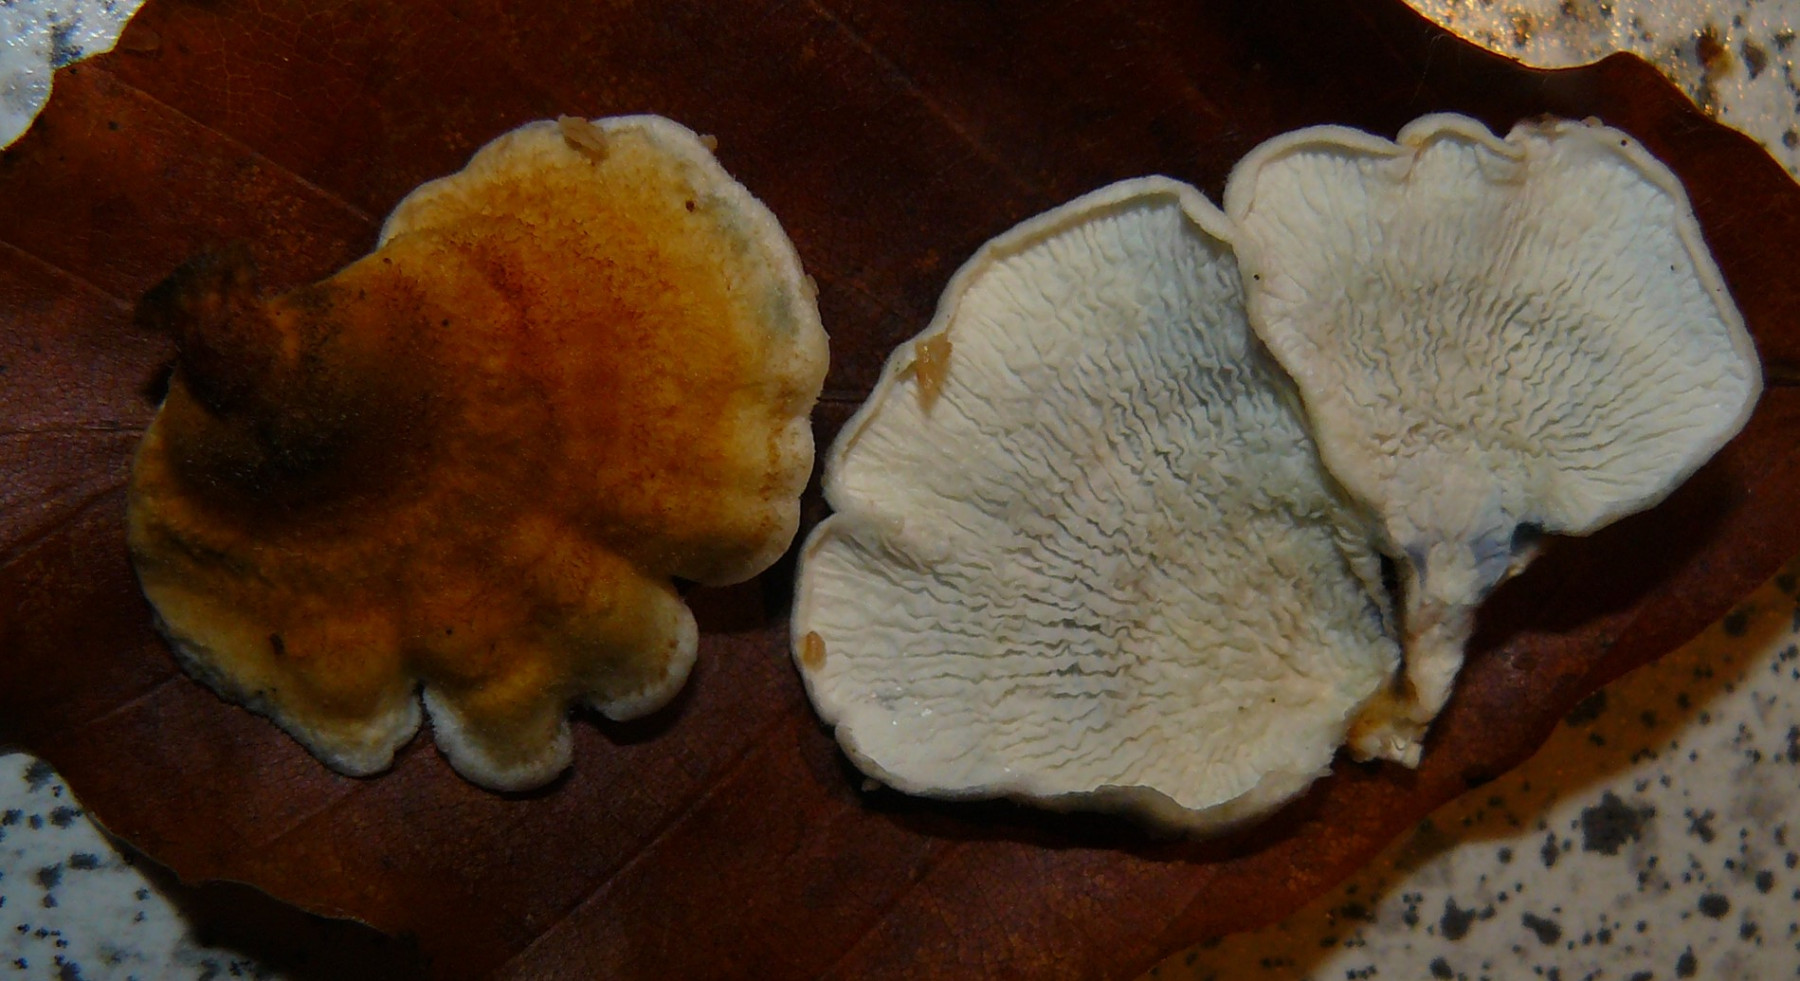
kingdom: Fungi
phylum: Basidiomycota
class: Agaricomycetes
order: Amylocorticiales
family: Amylocorticiaceae
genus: Plicaturopsis
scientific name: Plicaturopsis crispa
